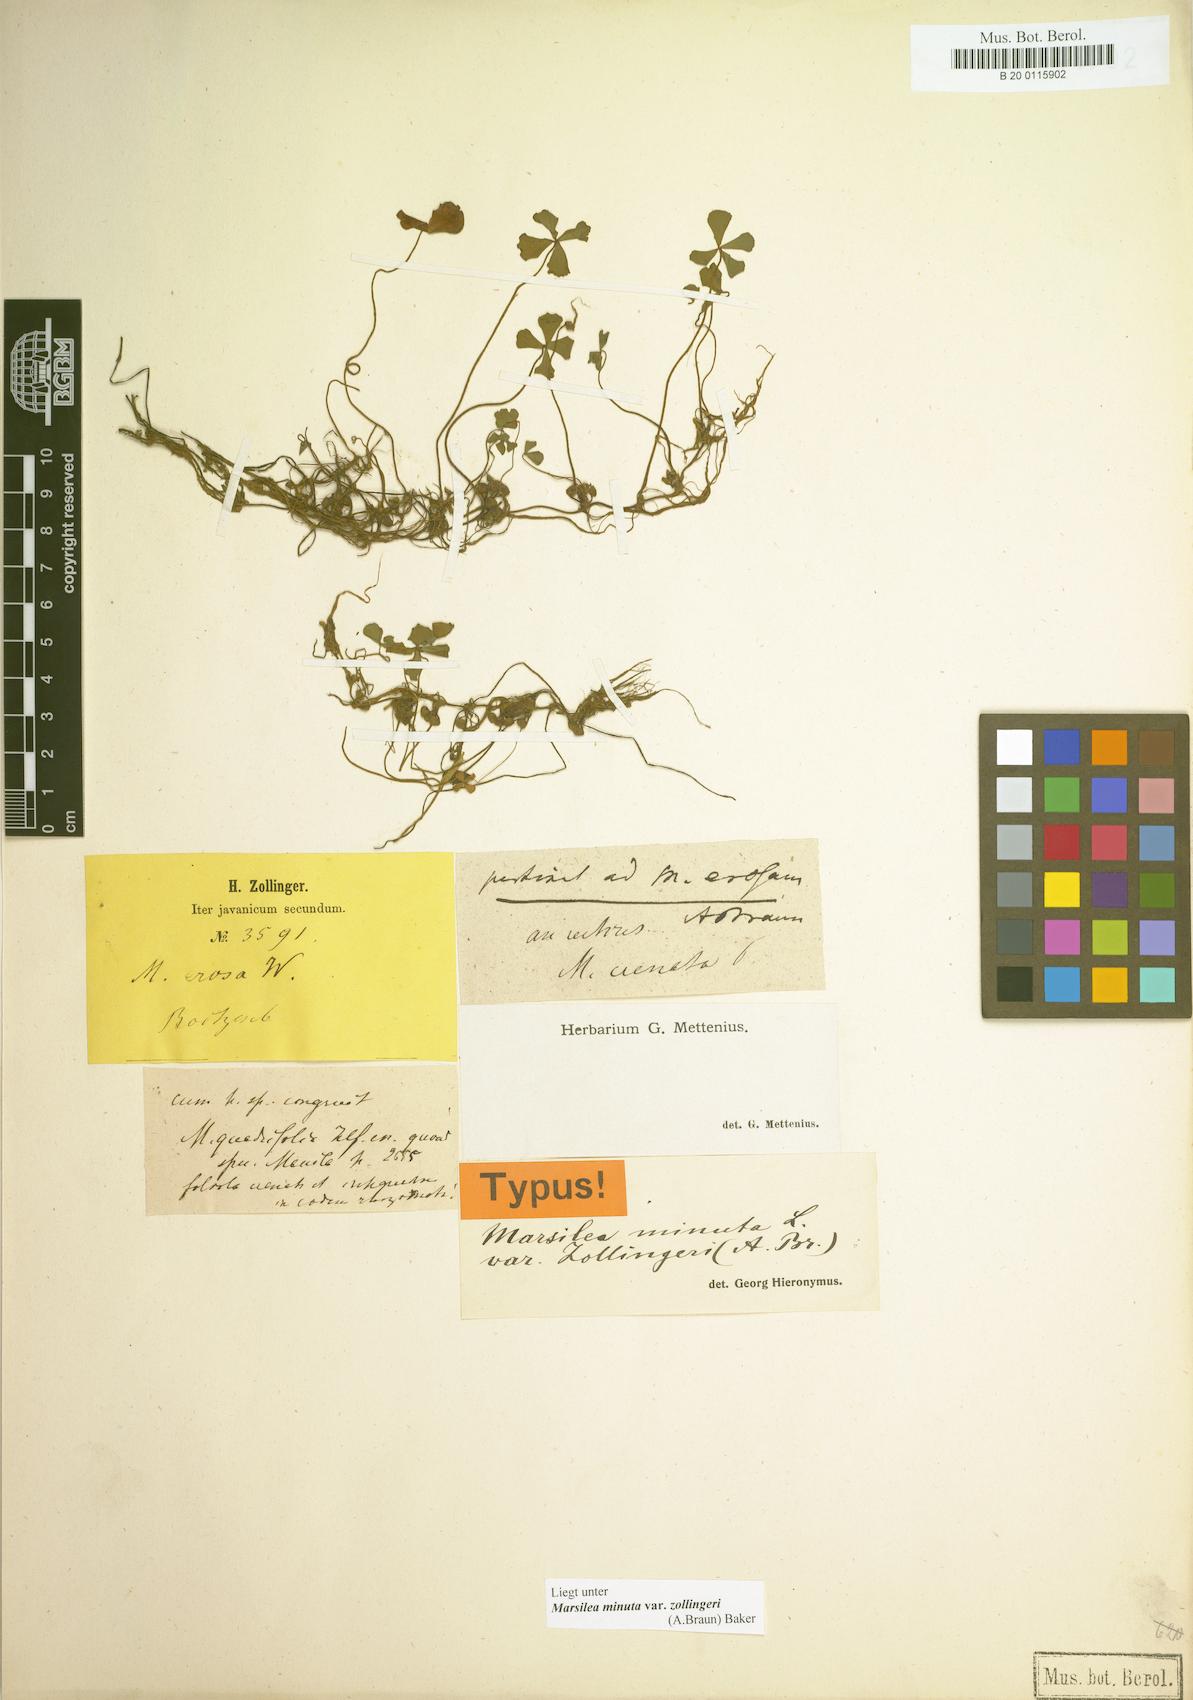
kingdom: Plantae
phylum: Tracheophyta
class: Polypodiopsida
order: Salviniales
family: Marsileaceae
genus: Marsilea
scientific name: Marsilea minuta
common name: Dwarf waterclover
